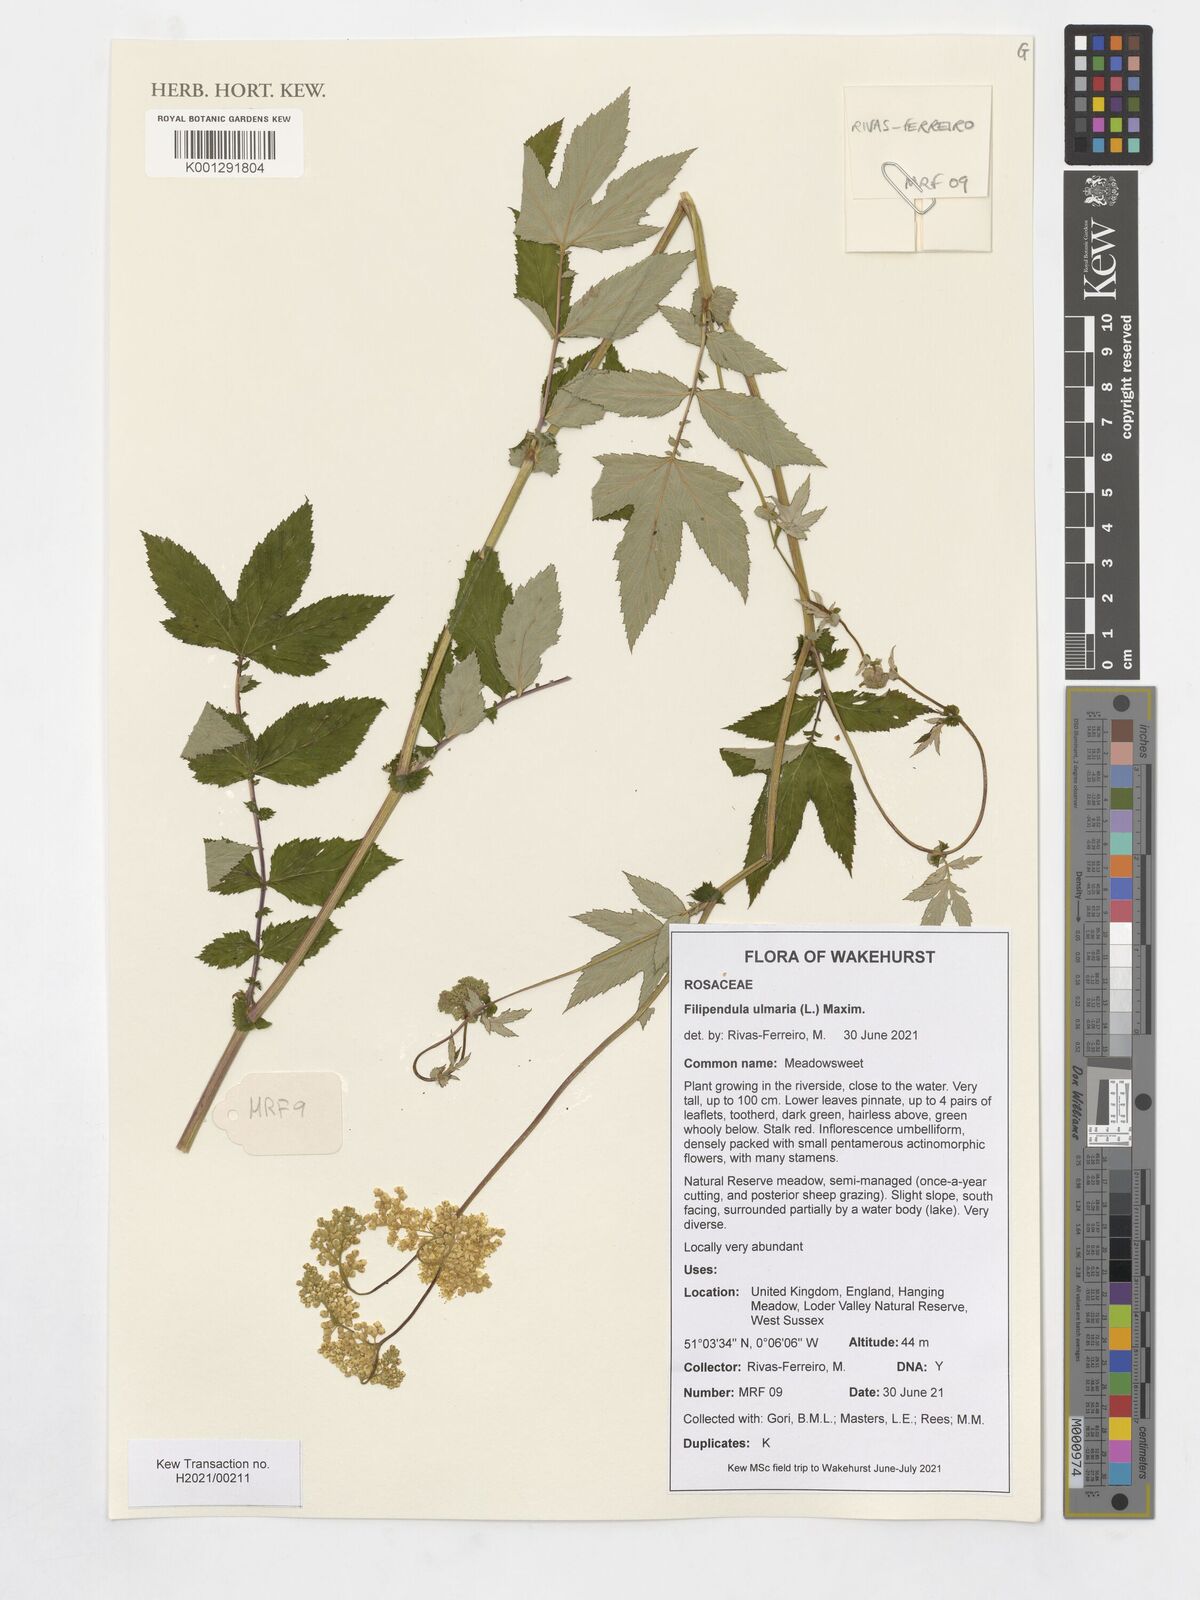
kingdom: Plantae
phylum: Tracheophyta
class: Magnoliopsida
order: Rosales
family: Rosaceae
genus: Filipendula
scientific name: Filipendula ulmaria
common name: Meadowsweet
